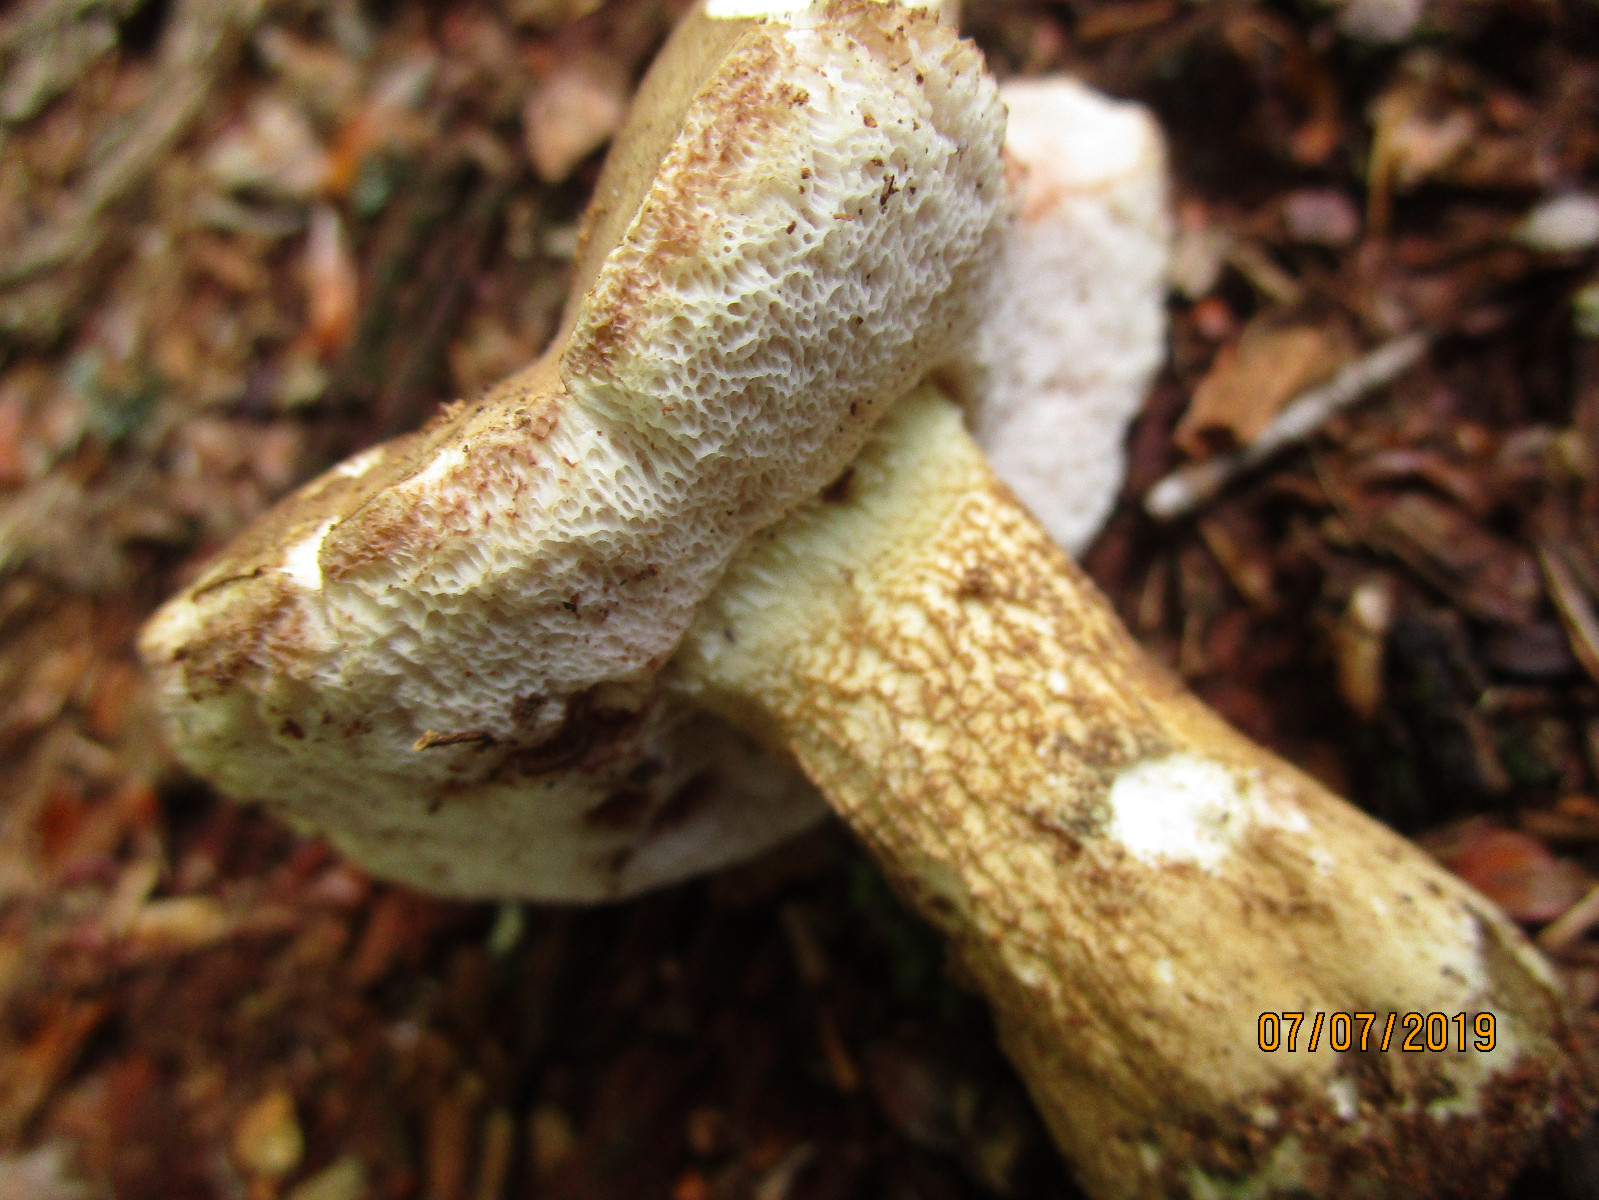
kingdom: Fungi
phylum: Basidiomycota
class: Agaricomycetes
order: Boletales
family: Boletaceae
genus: Tylopilus
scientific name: Tylopilus felleus
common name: galderørhat
